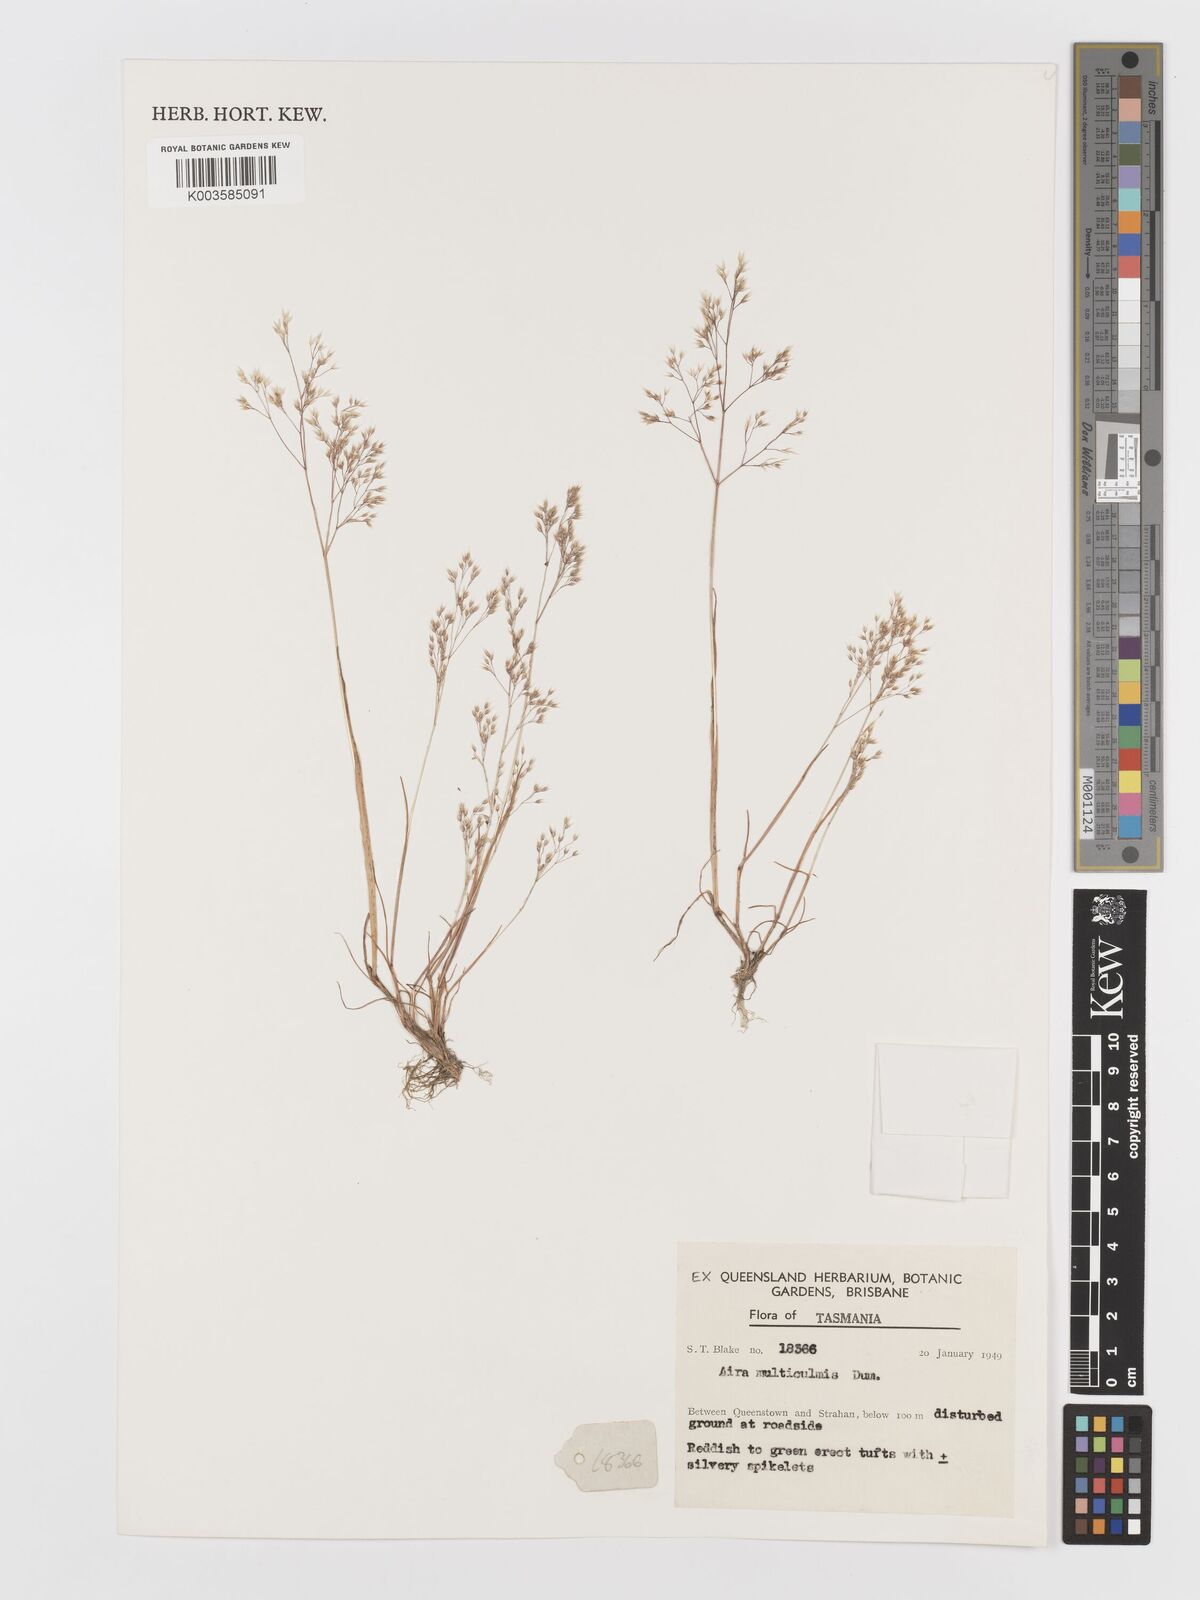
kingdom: Plantae
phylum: Tracheophyta
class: Liliopsida
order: Poales
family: Poaceae
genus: Aira
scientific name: Aira caryophyllea
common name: Silver hairgrass
